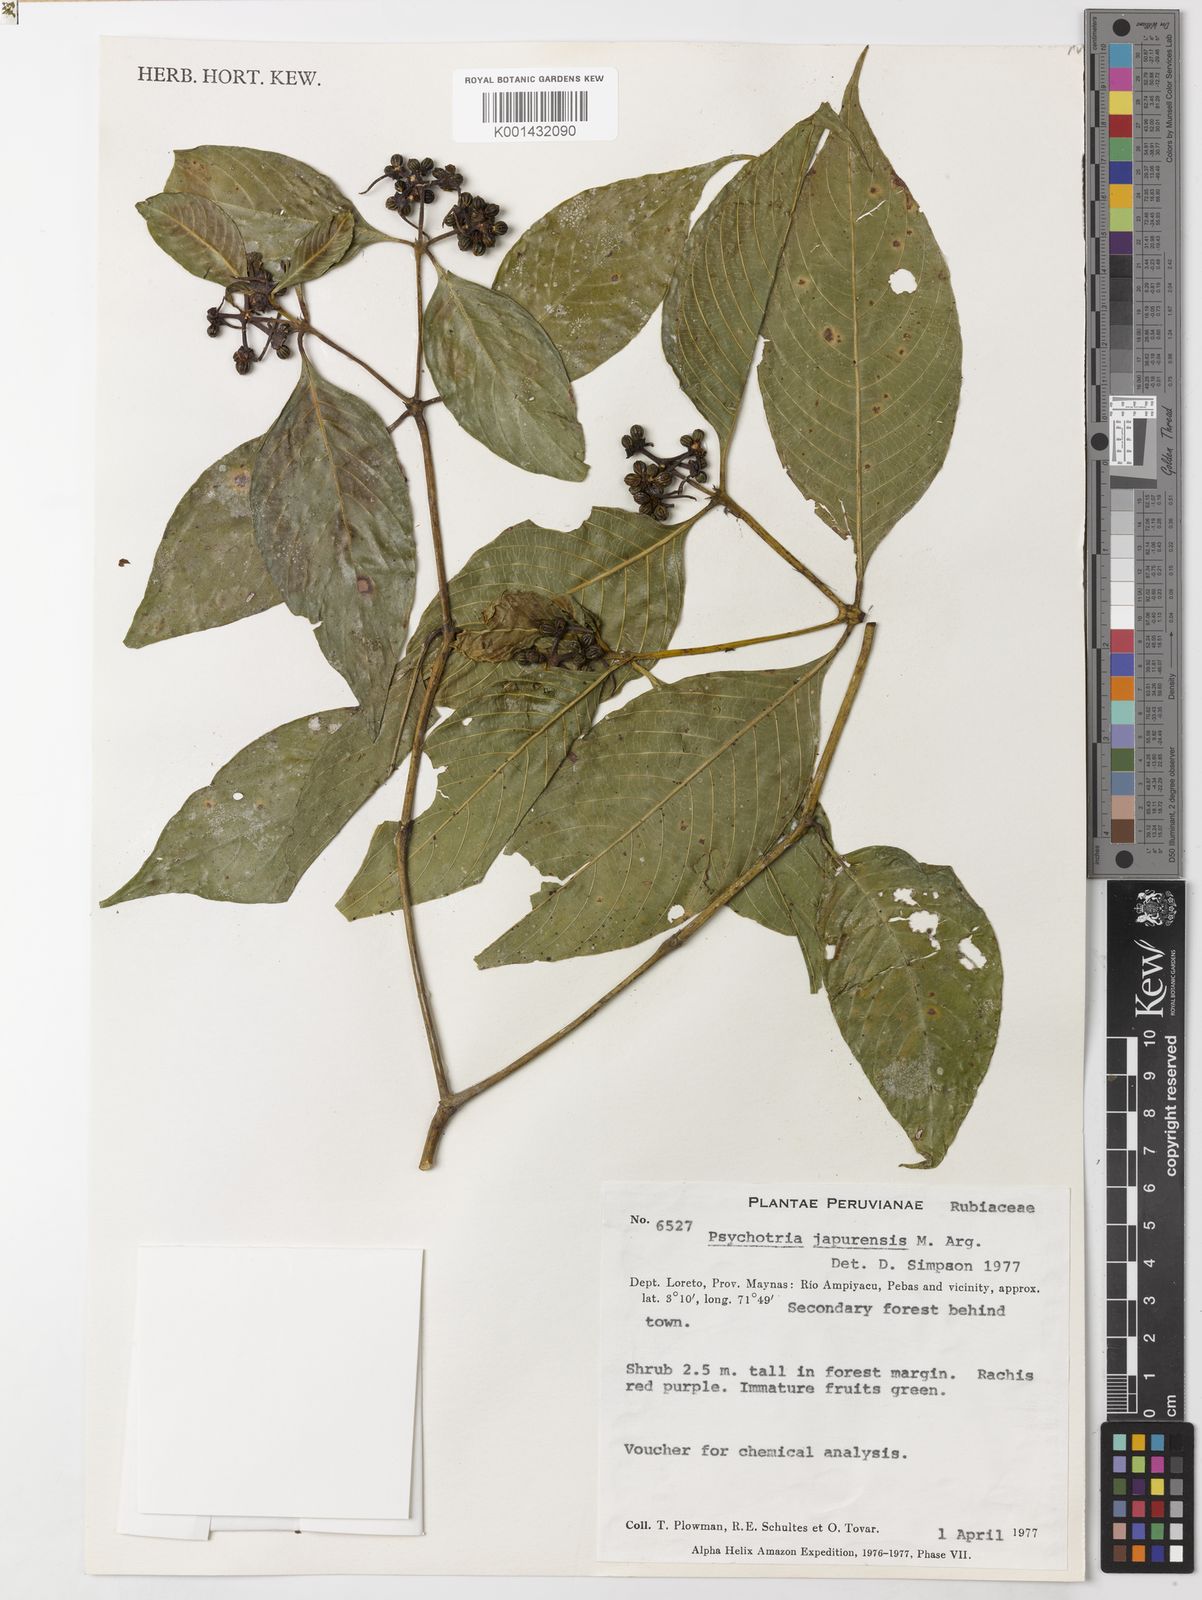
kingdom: Plantae
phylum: Tracheophyta
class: Magnoliopsida
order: Gentianales
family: Rubiaceae
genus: Psychotria
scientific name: Psychotria
